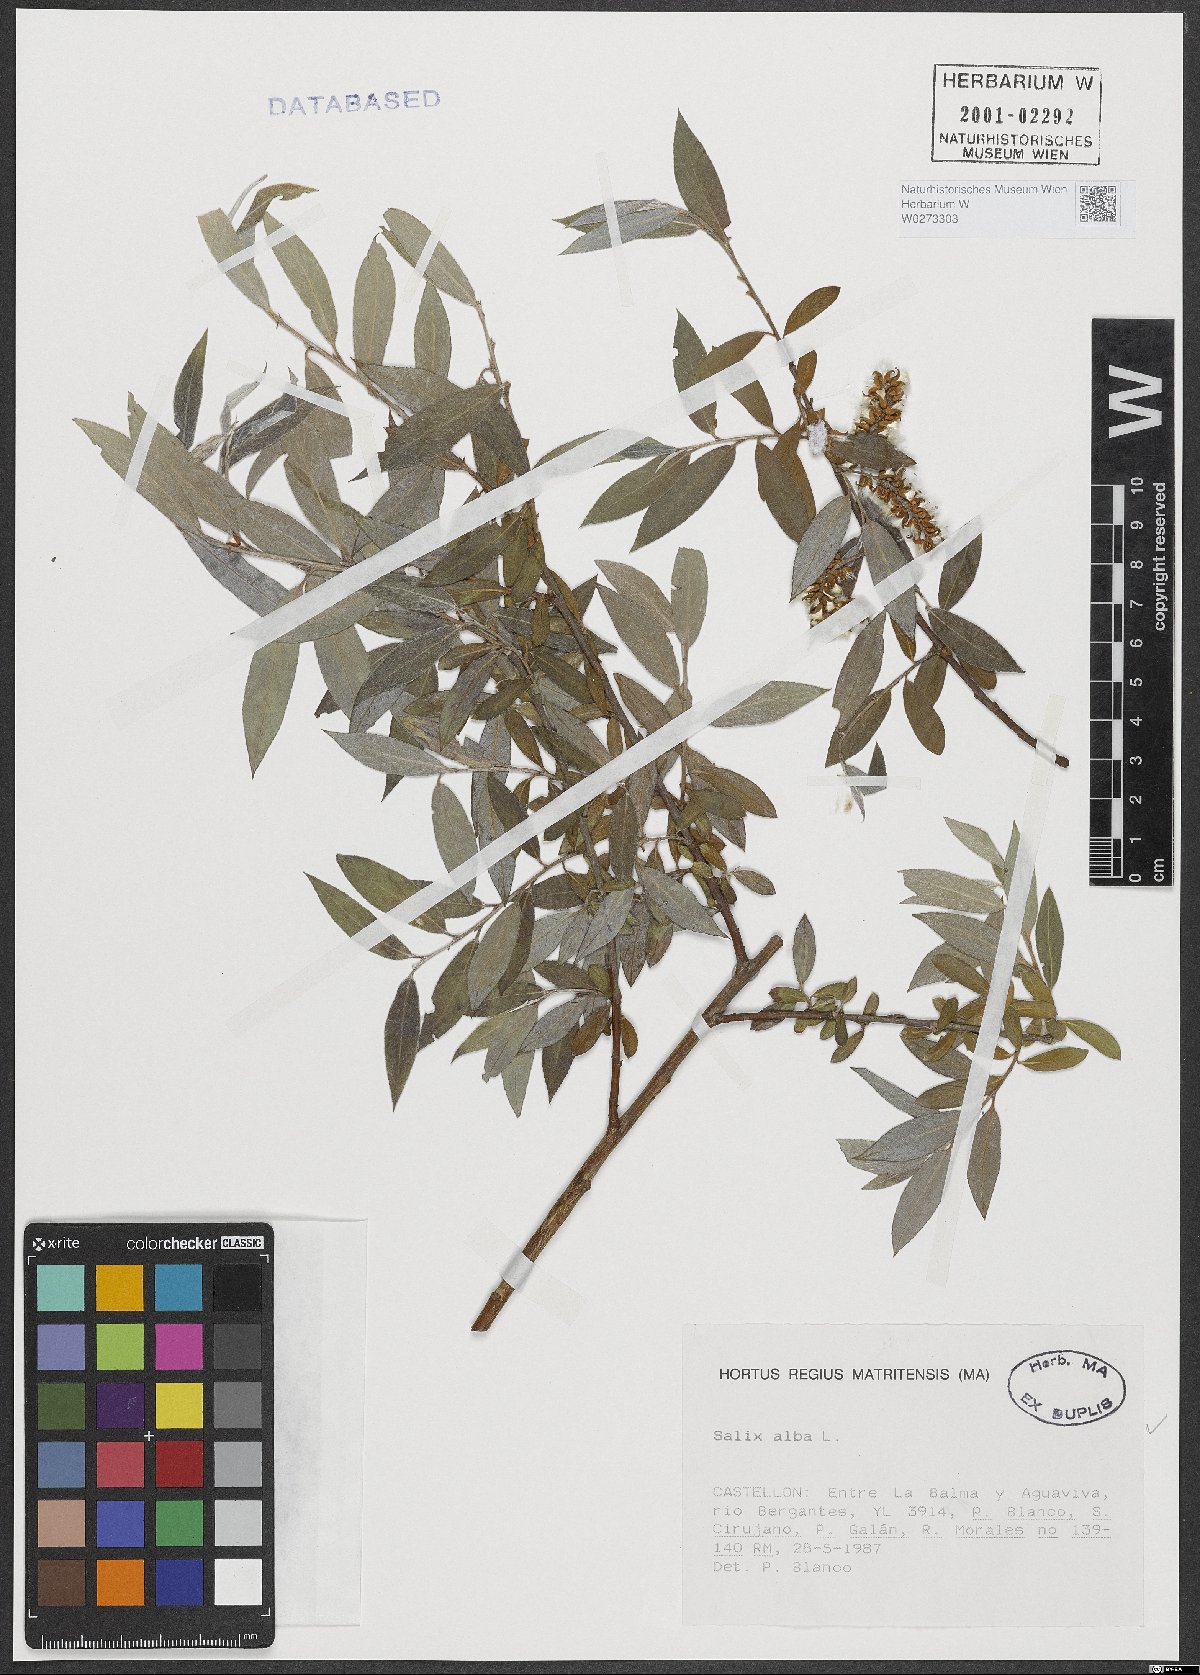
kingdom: Plantae
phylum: Tracheophyta
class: Magnoliopsida
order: Malpighiales
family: Salicaceae
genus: Salix
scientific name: Salix alba
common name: White willow
